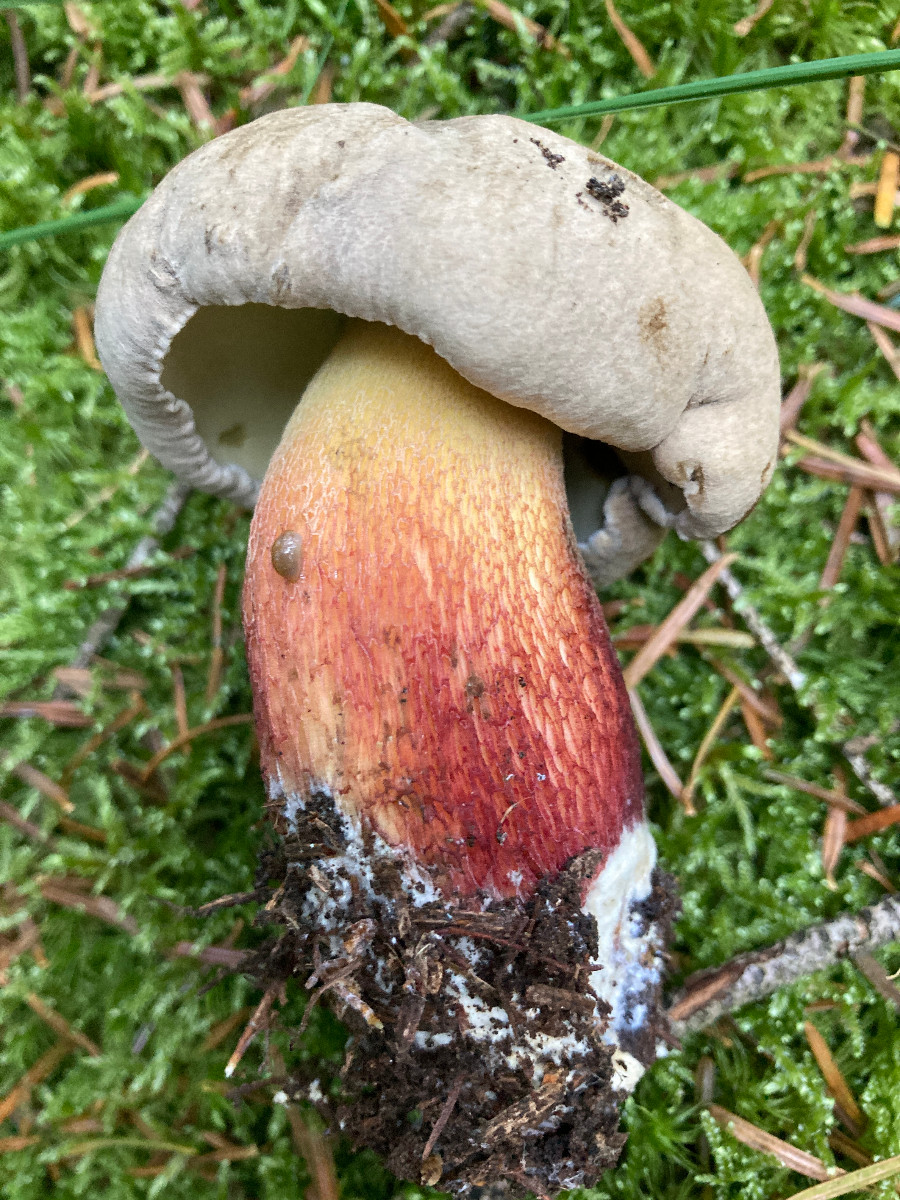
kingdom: Fungi
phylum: Basidiomycota
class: Agaricomycetes
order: Boletales
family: Boletaceae
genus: Caloboletus
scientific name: Caloboletus calopus
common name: skønfodet rørhat
